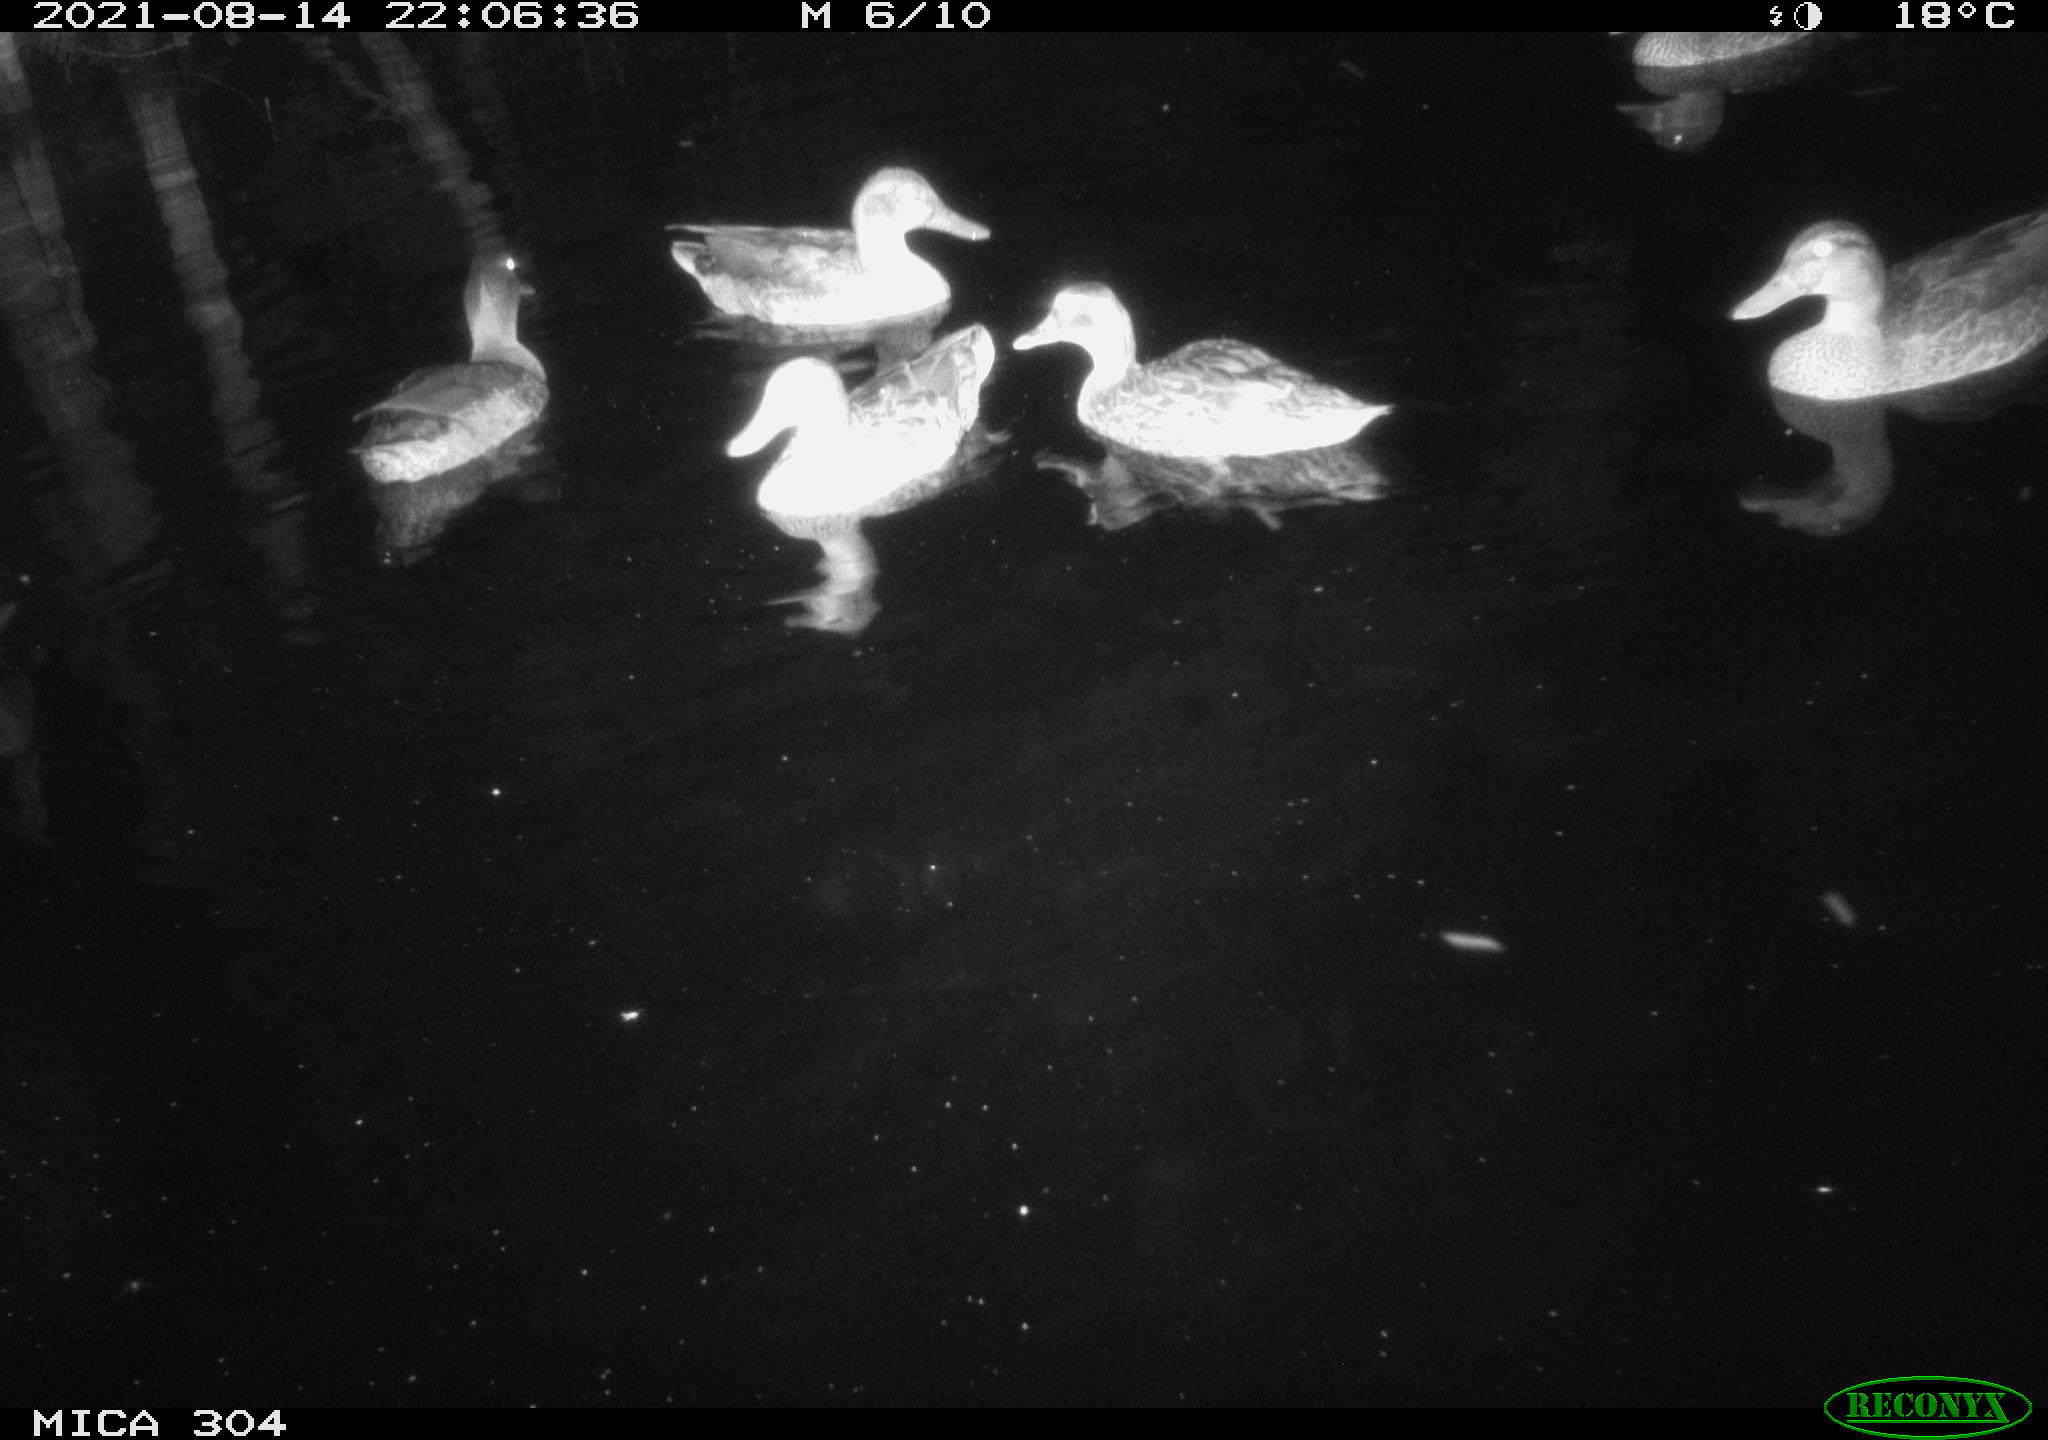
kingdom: Animalia
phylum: Chordata
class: Aves
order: Anseriformes
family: Anatidae
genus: Mareca
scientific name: Mareca strepera
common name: Gadwall
